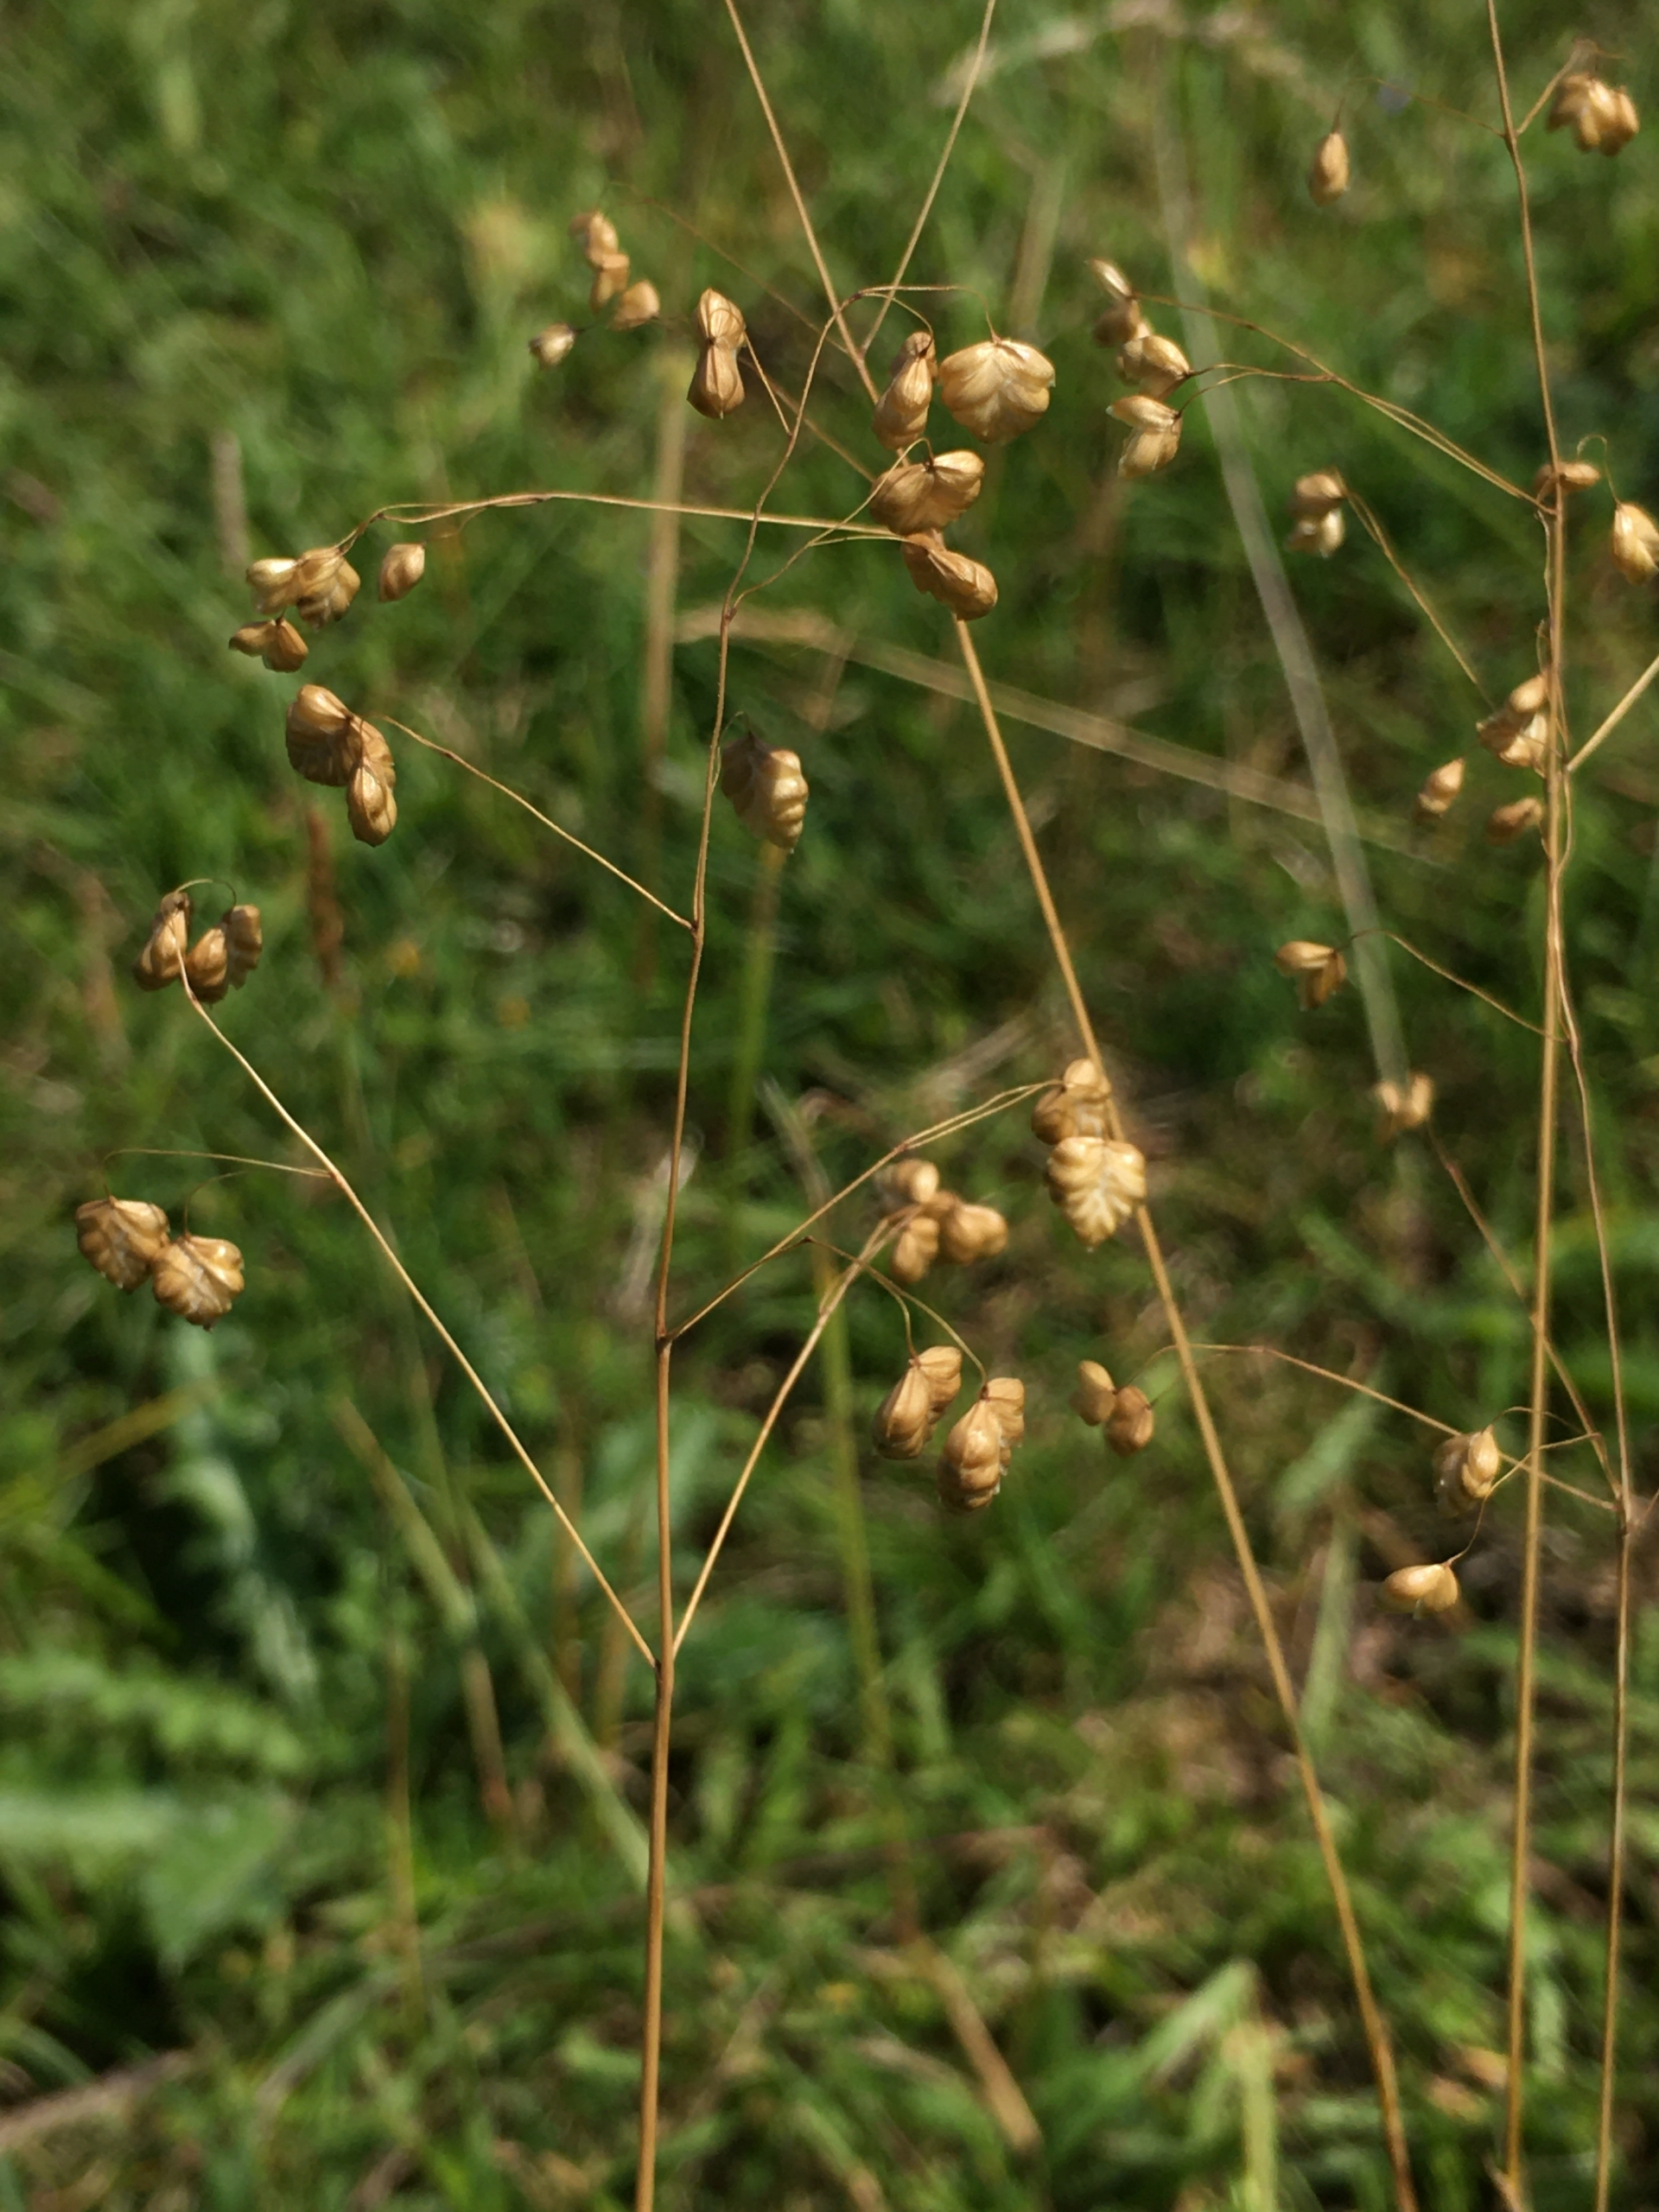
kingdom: Plantae
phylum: Tracheophyta
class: Liliopsida
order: Poales
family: Poaceae
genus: Briza
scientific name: Briza media
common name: Hjertegræs
